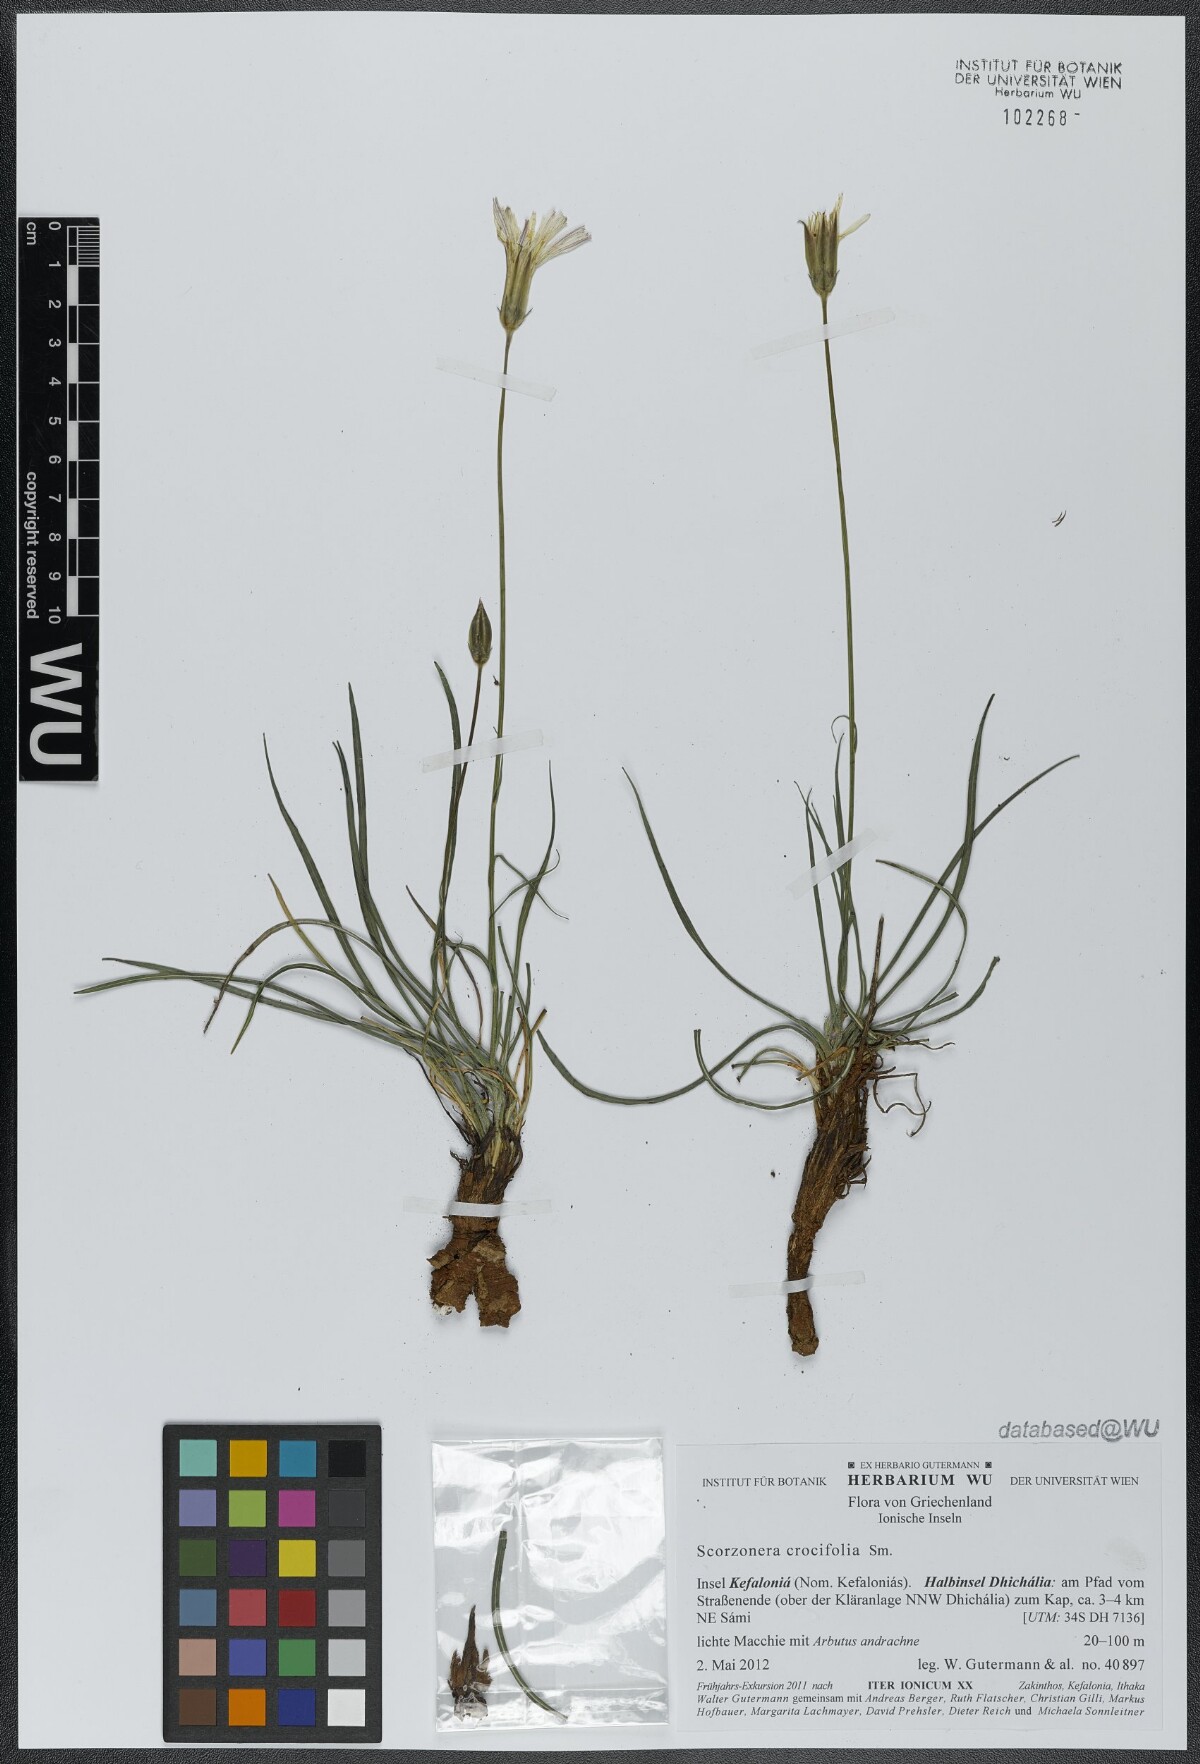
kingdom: Plantae
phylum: Tracheophyta
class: Magnoliopsida
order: Asterales
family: Asteraceae
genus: Pseudopodospermum
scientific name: Pseudopodospermum crocifolium
